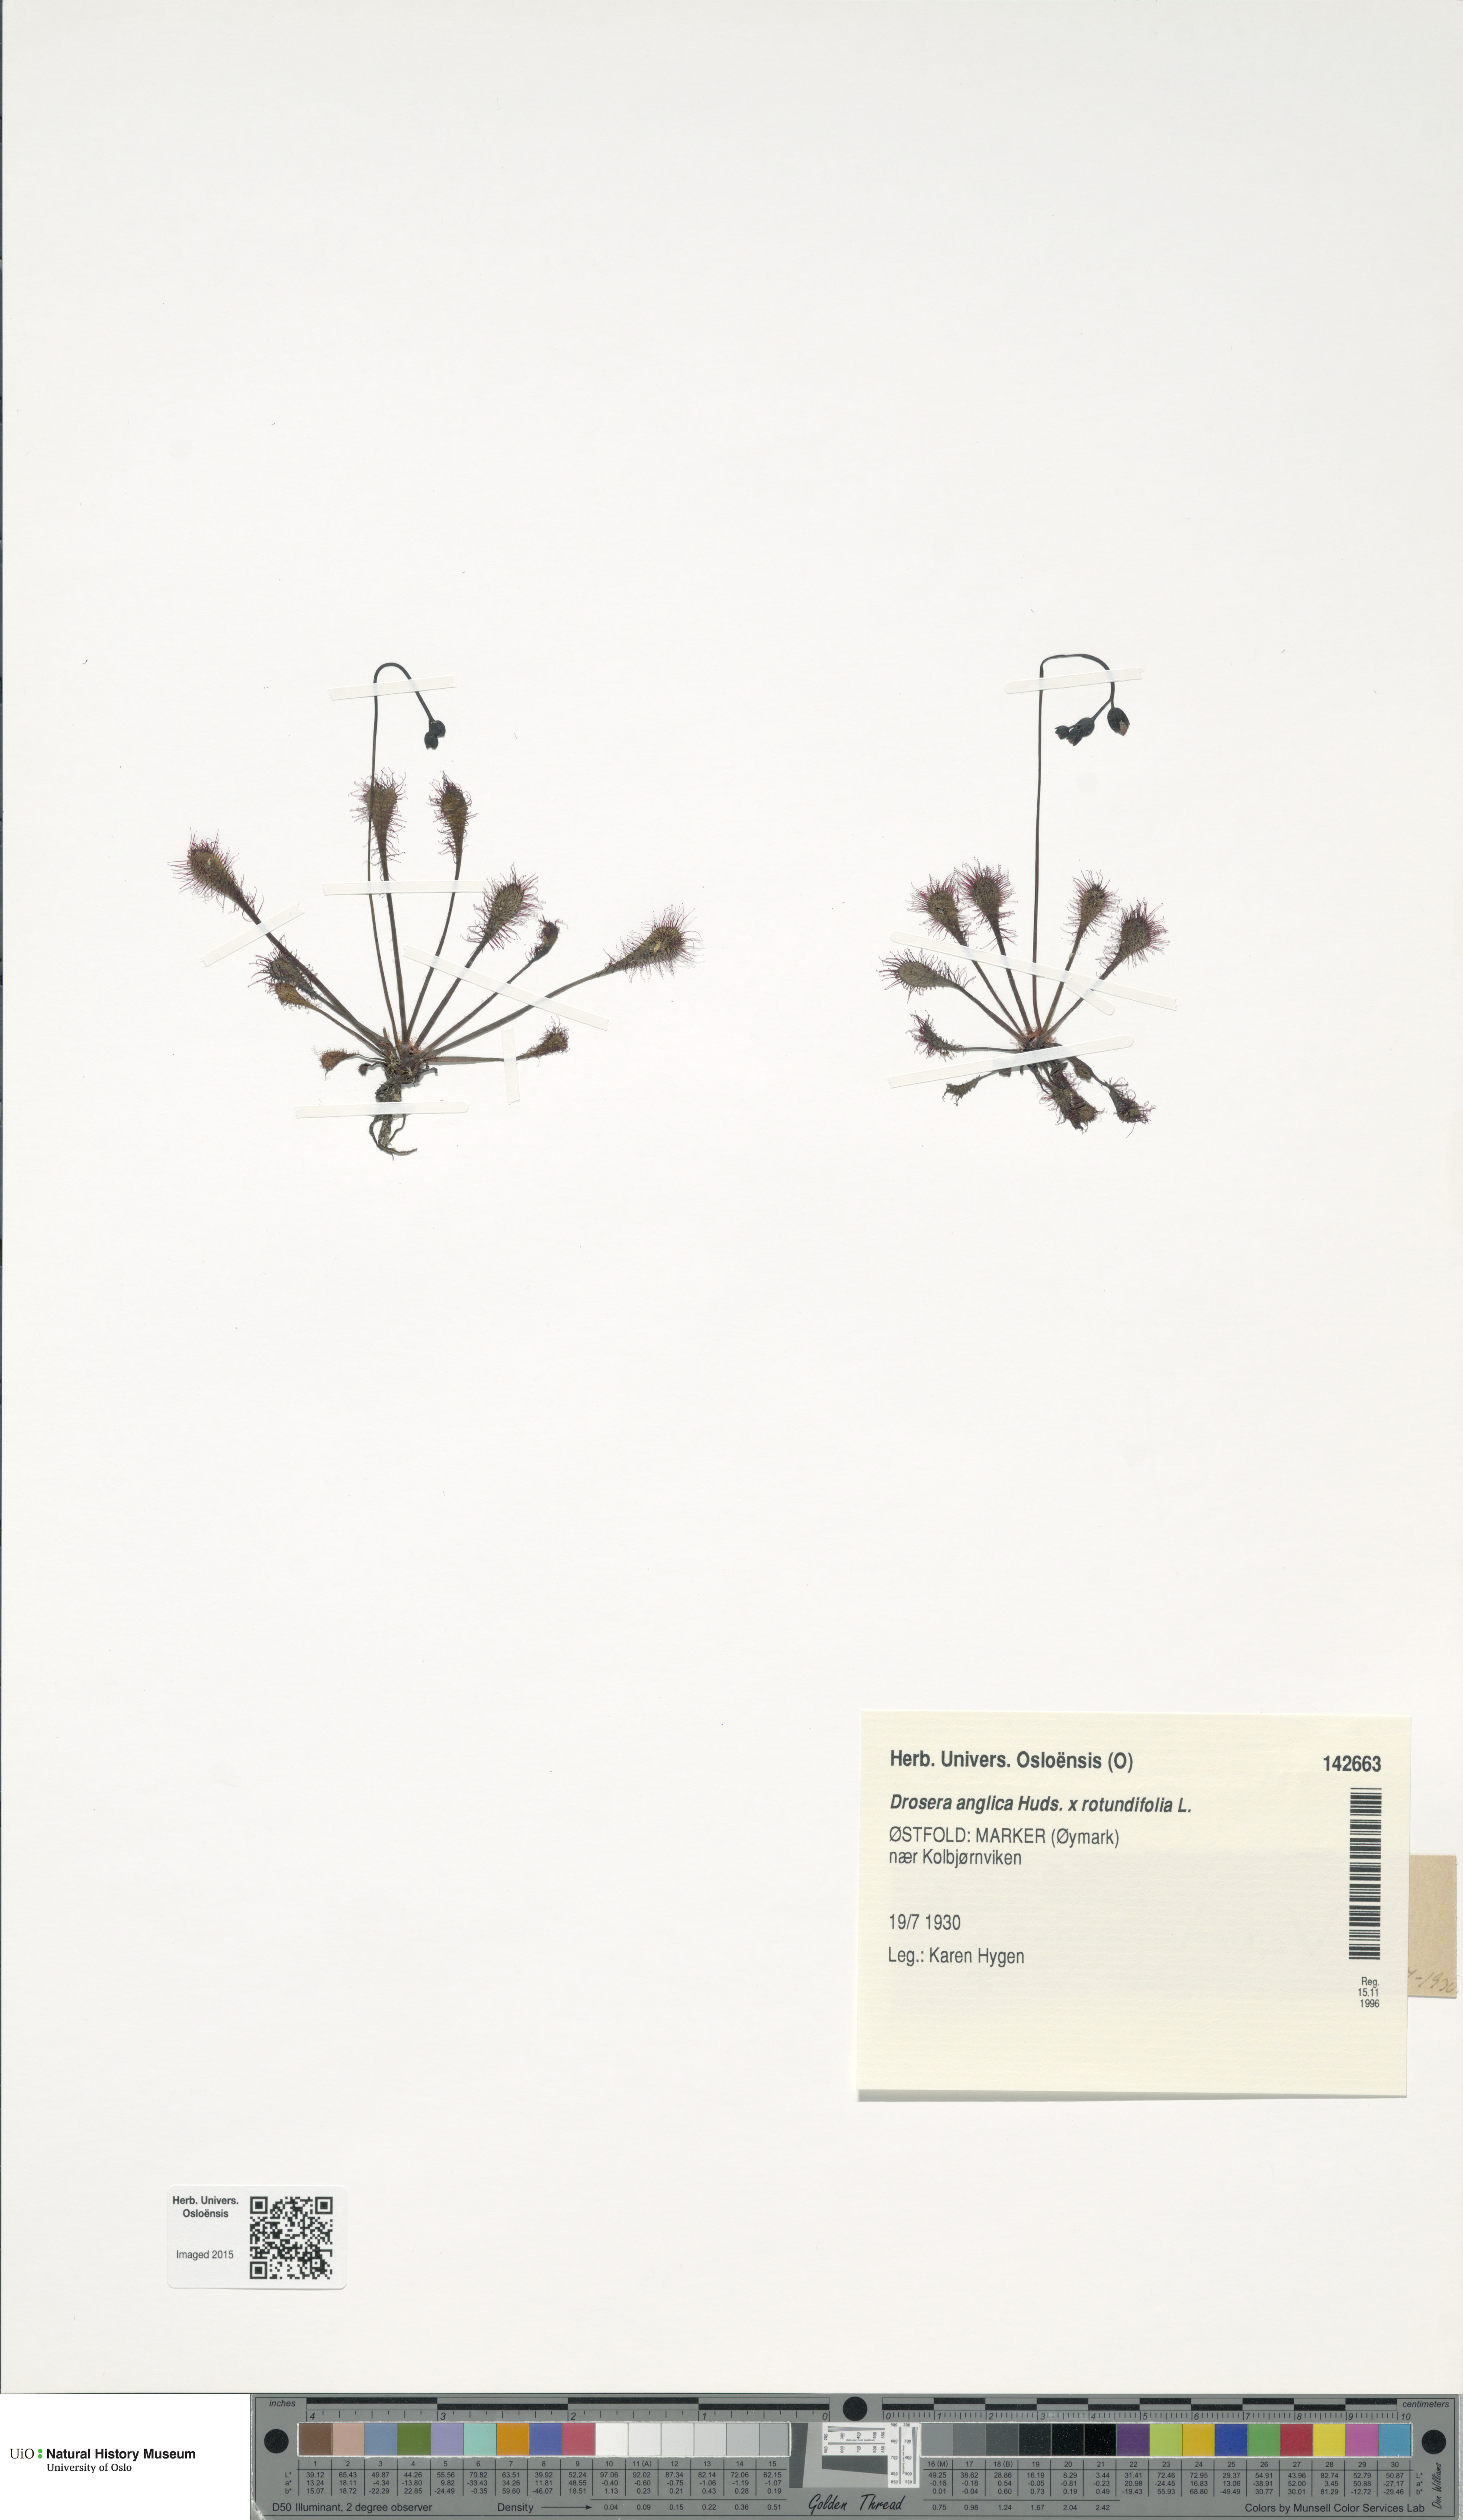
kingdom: Plantae
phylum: Tracheophyta
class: Magnoliopsida
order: Caryophyllales
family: Droseraceae
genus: Drosera
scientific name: Drosera
